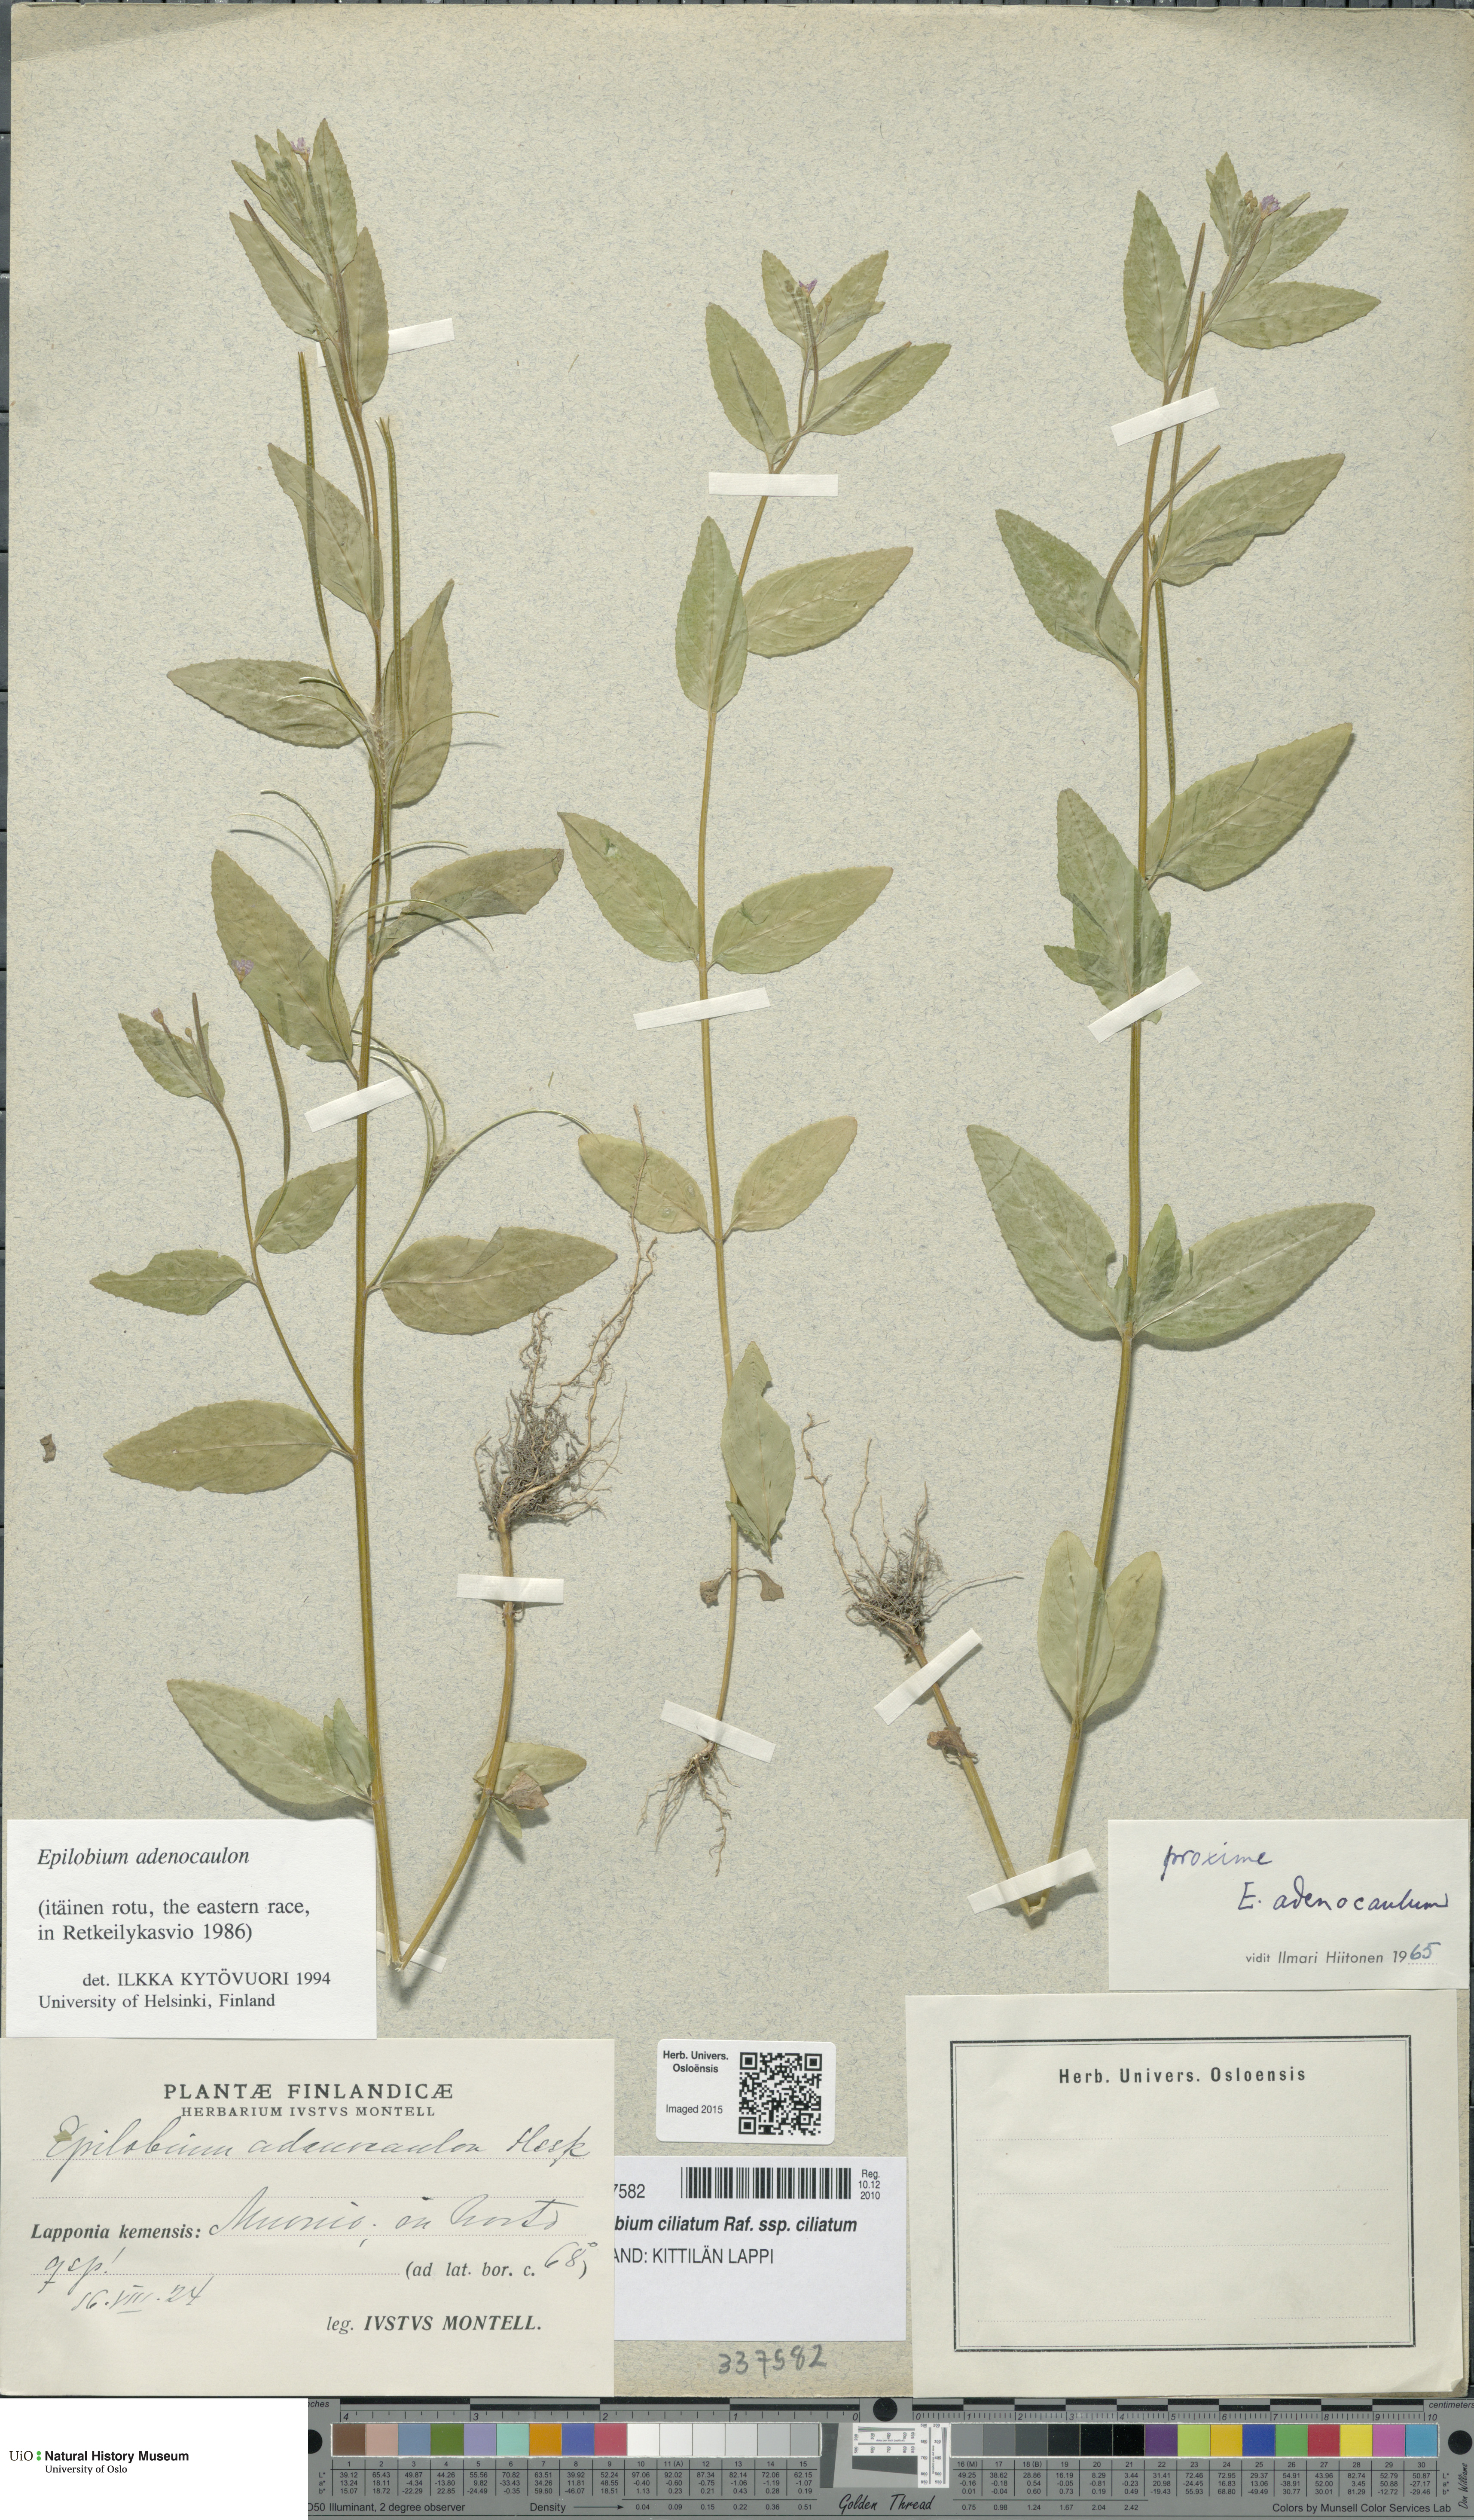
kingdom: Plantae
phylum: Tracheophyta
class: Magnoliopsida
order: Myrtales
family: Onagraceae
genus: Epilobium
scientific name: Epilobium ciliatum
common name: American willowherb
